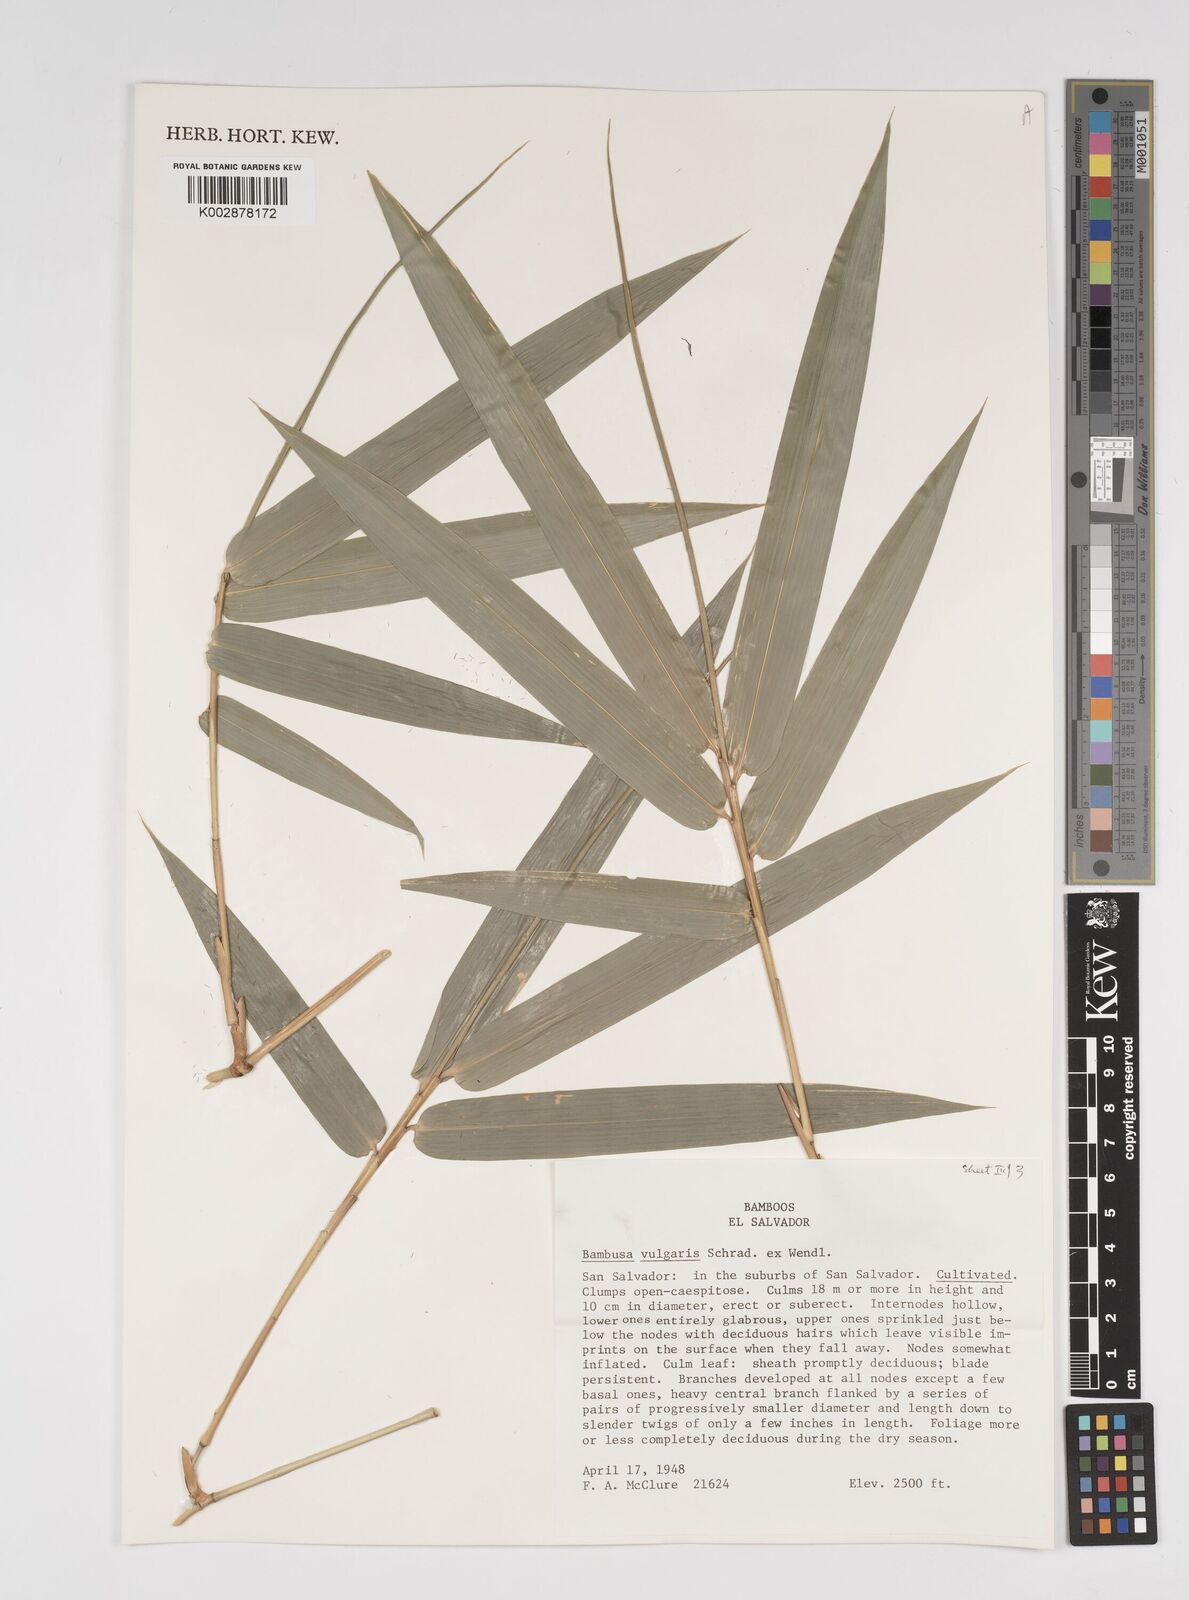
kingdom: Plantae
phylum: Tracheophyta
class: Liliopsida
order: Poales
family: Poaceae
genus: Bambusa
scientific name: Bambusa
